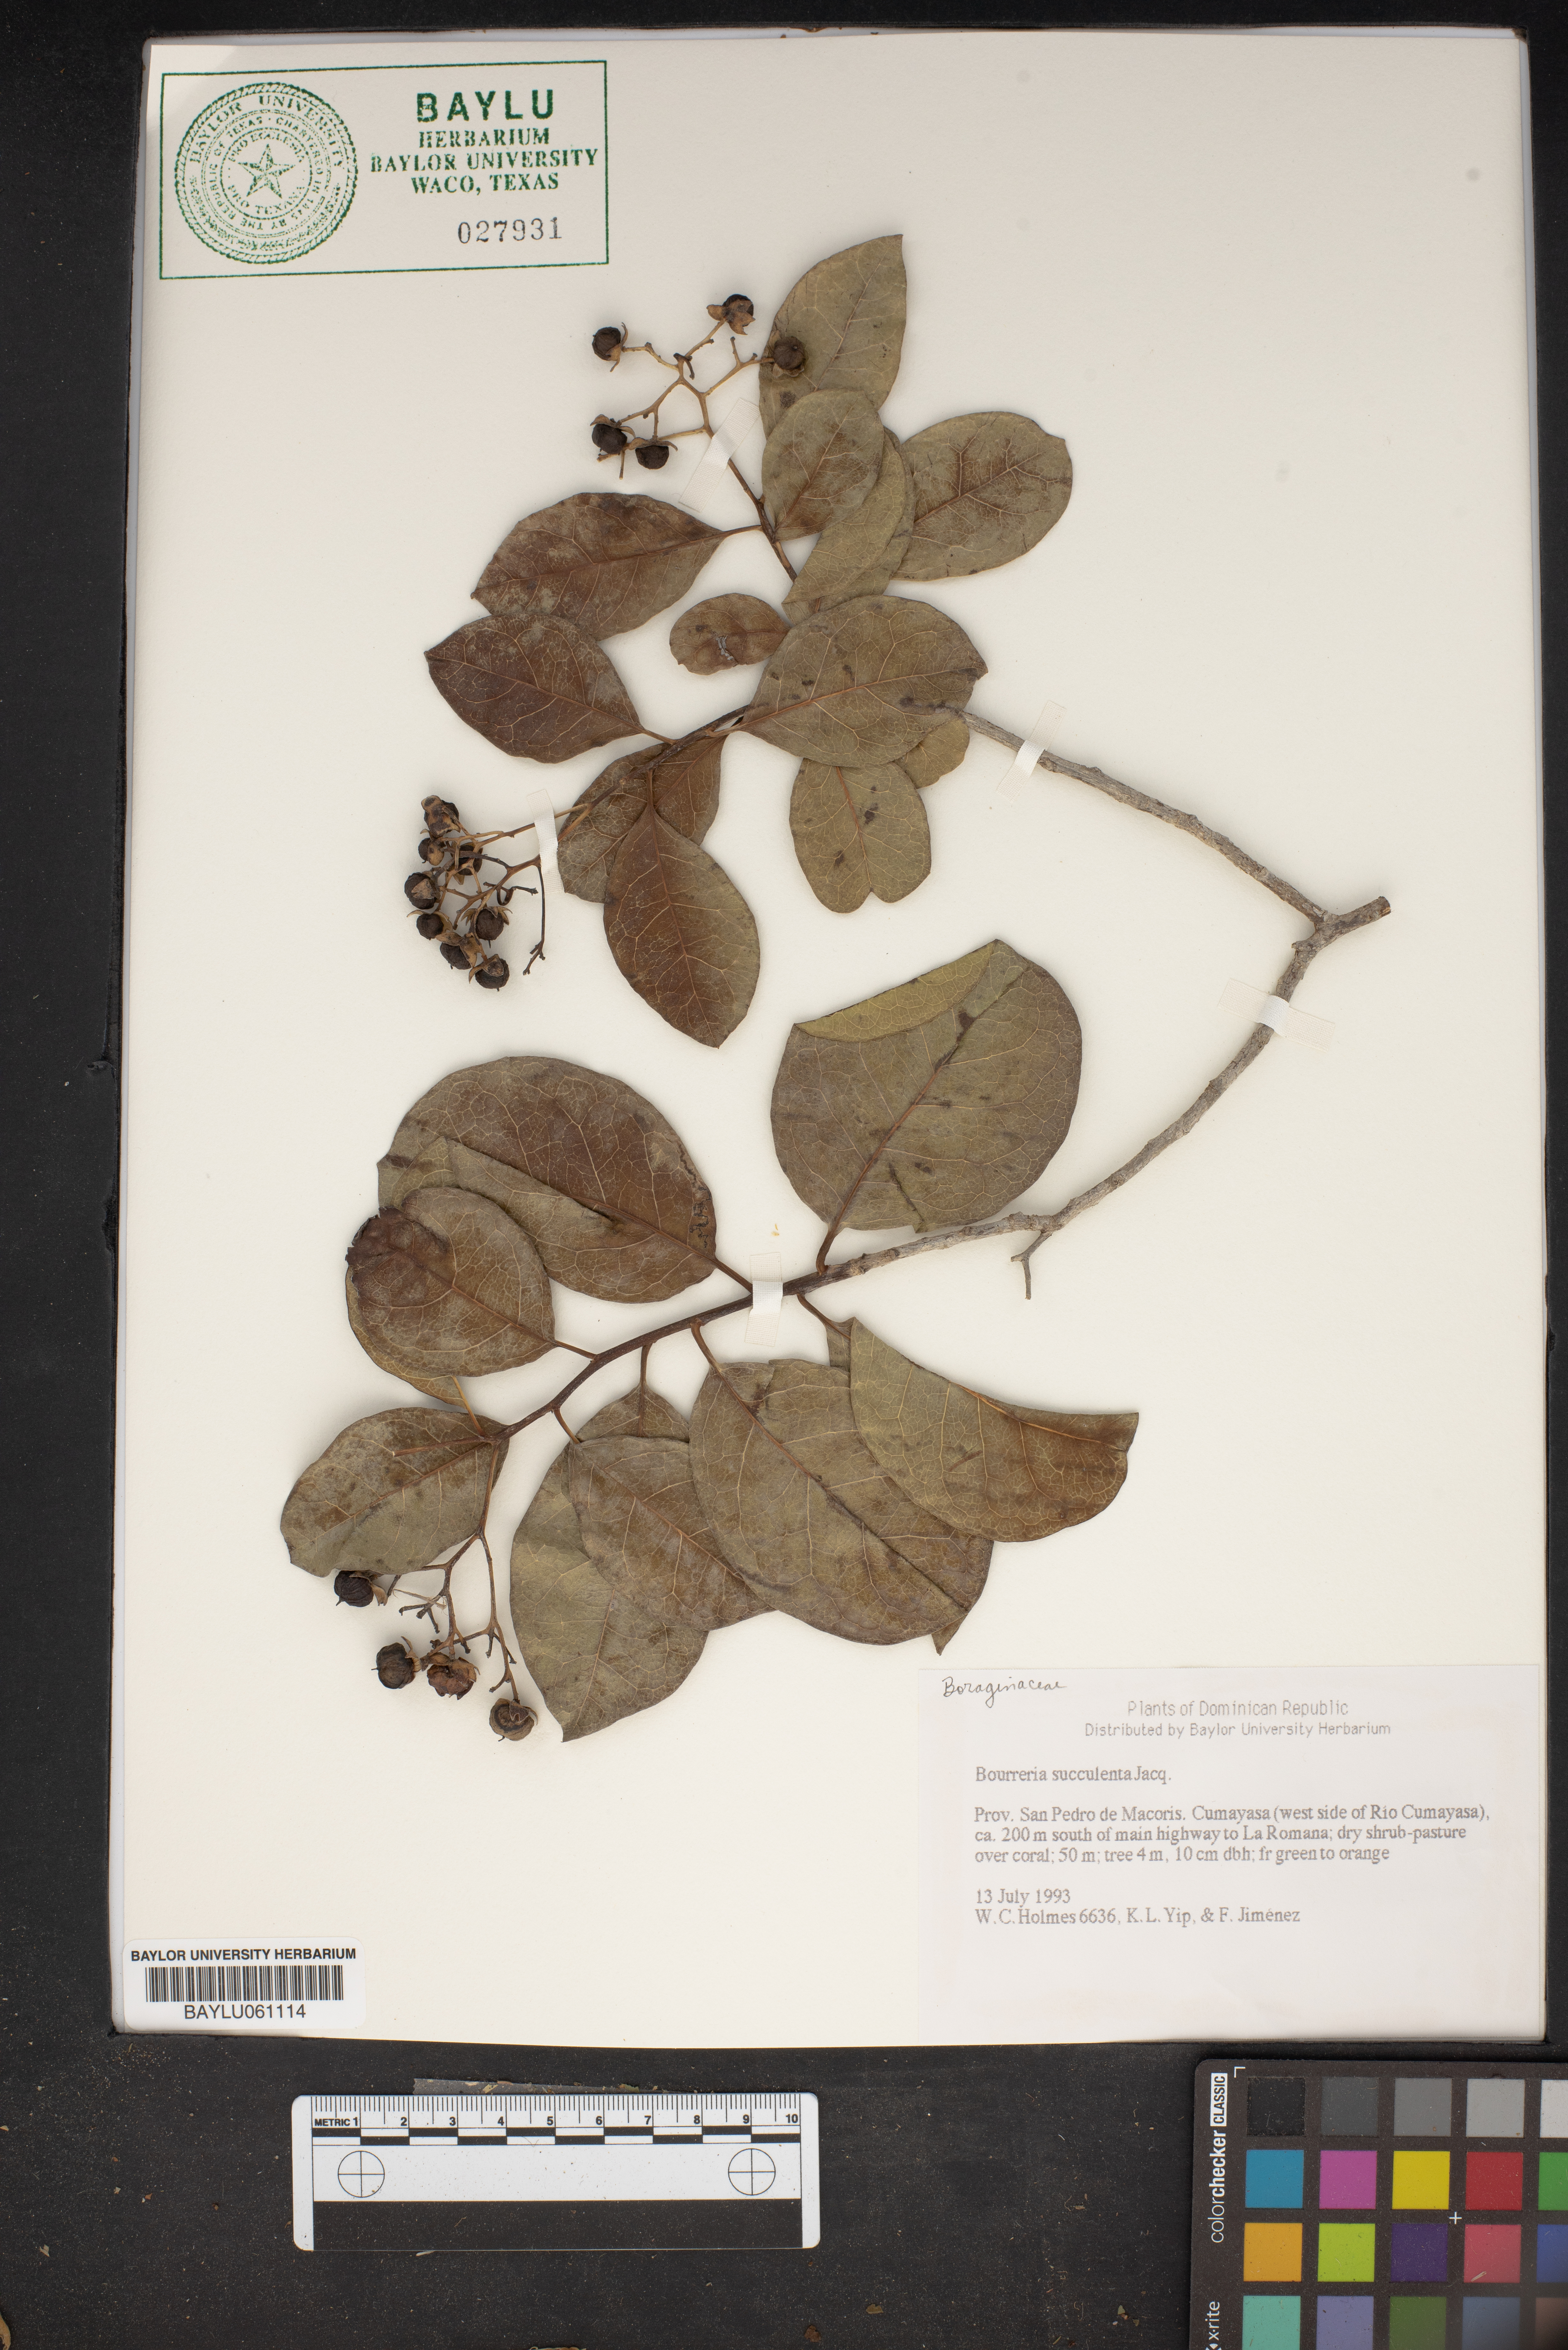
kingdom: Plantae
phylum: Tracheophyta
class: Magnoliopsida
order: Boraginales
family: Ehretiaceae
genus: Bourreria
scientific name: Bourreria succulenta
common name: Cherry
